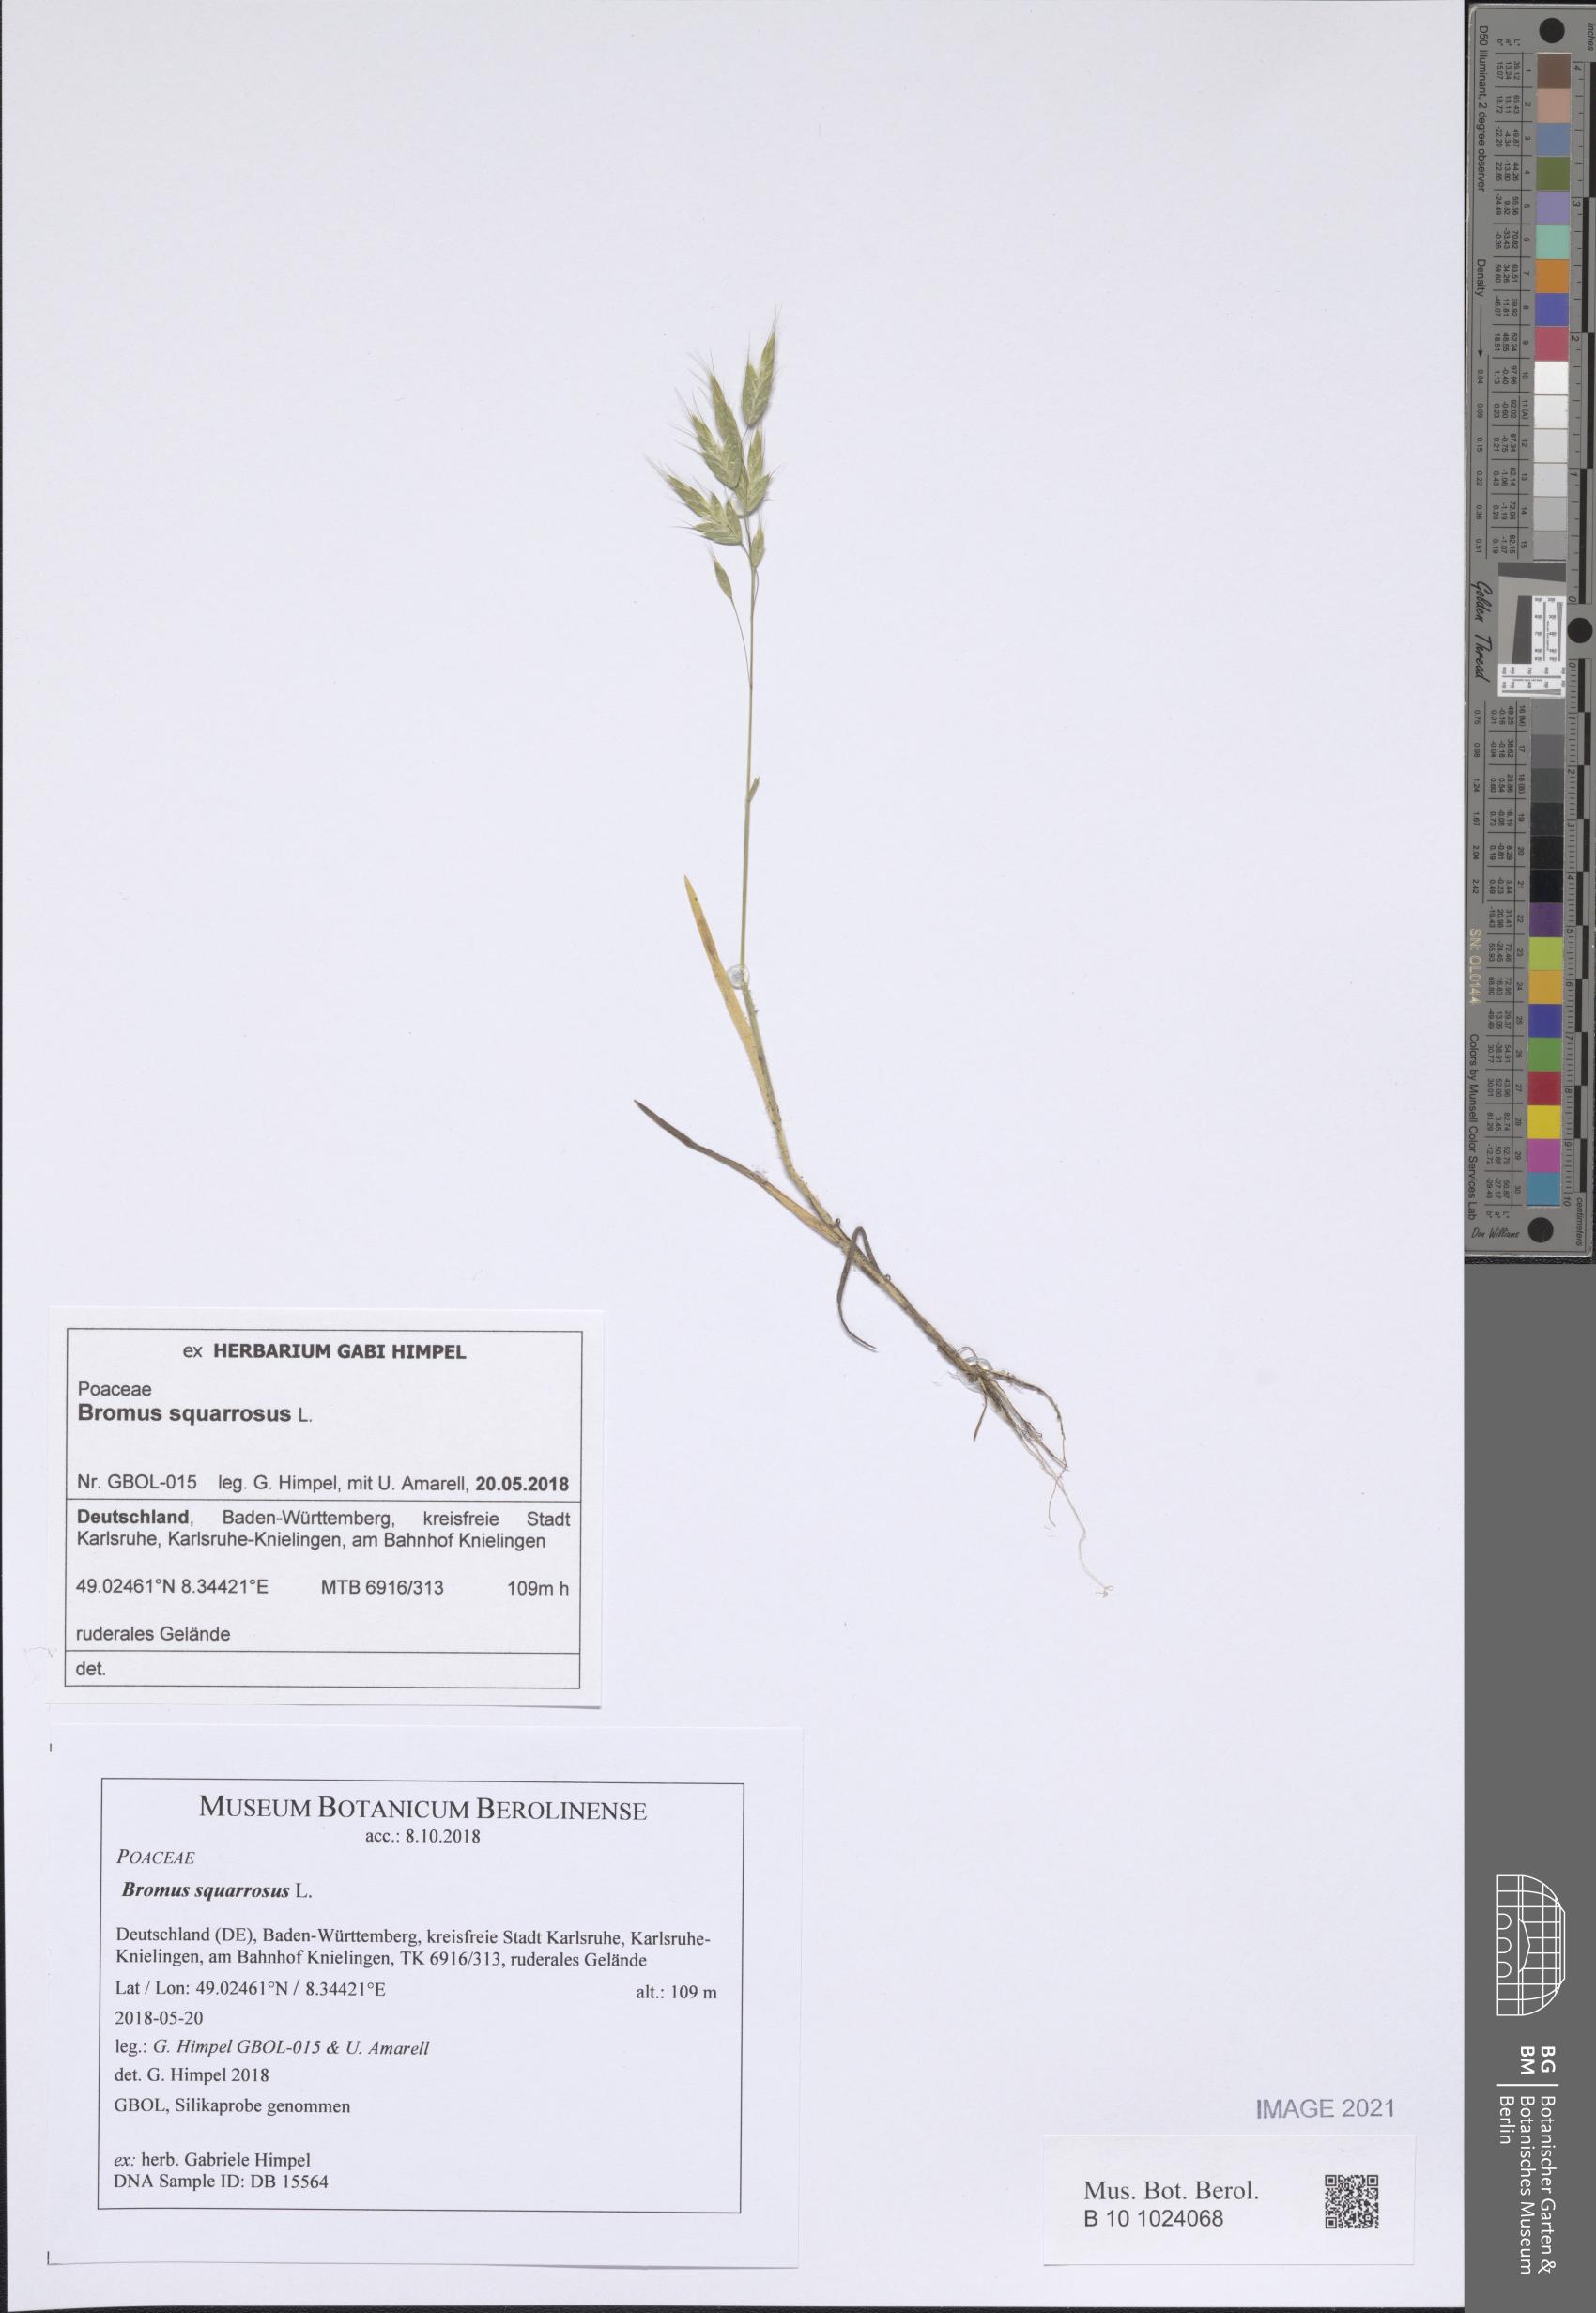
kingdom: Plantae
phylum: Tracheophyta
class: Liliopsida
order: Poales
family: Poaceae
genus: Bromus
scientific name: Bromus squarrosus
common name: Corn brome
